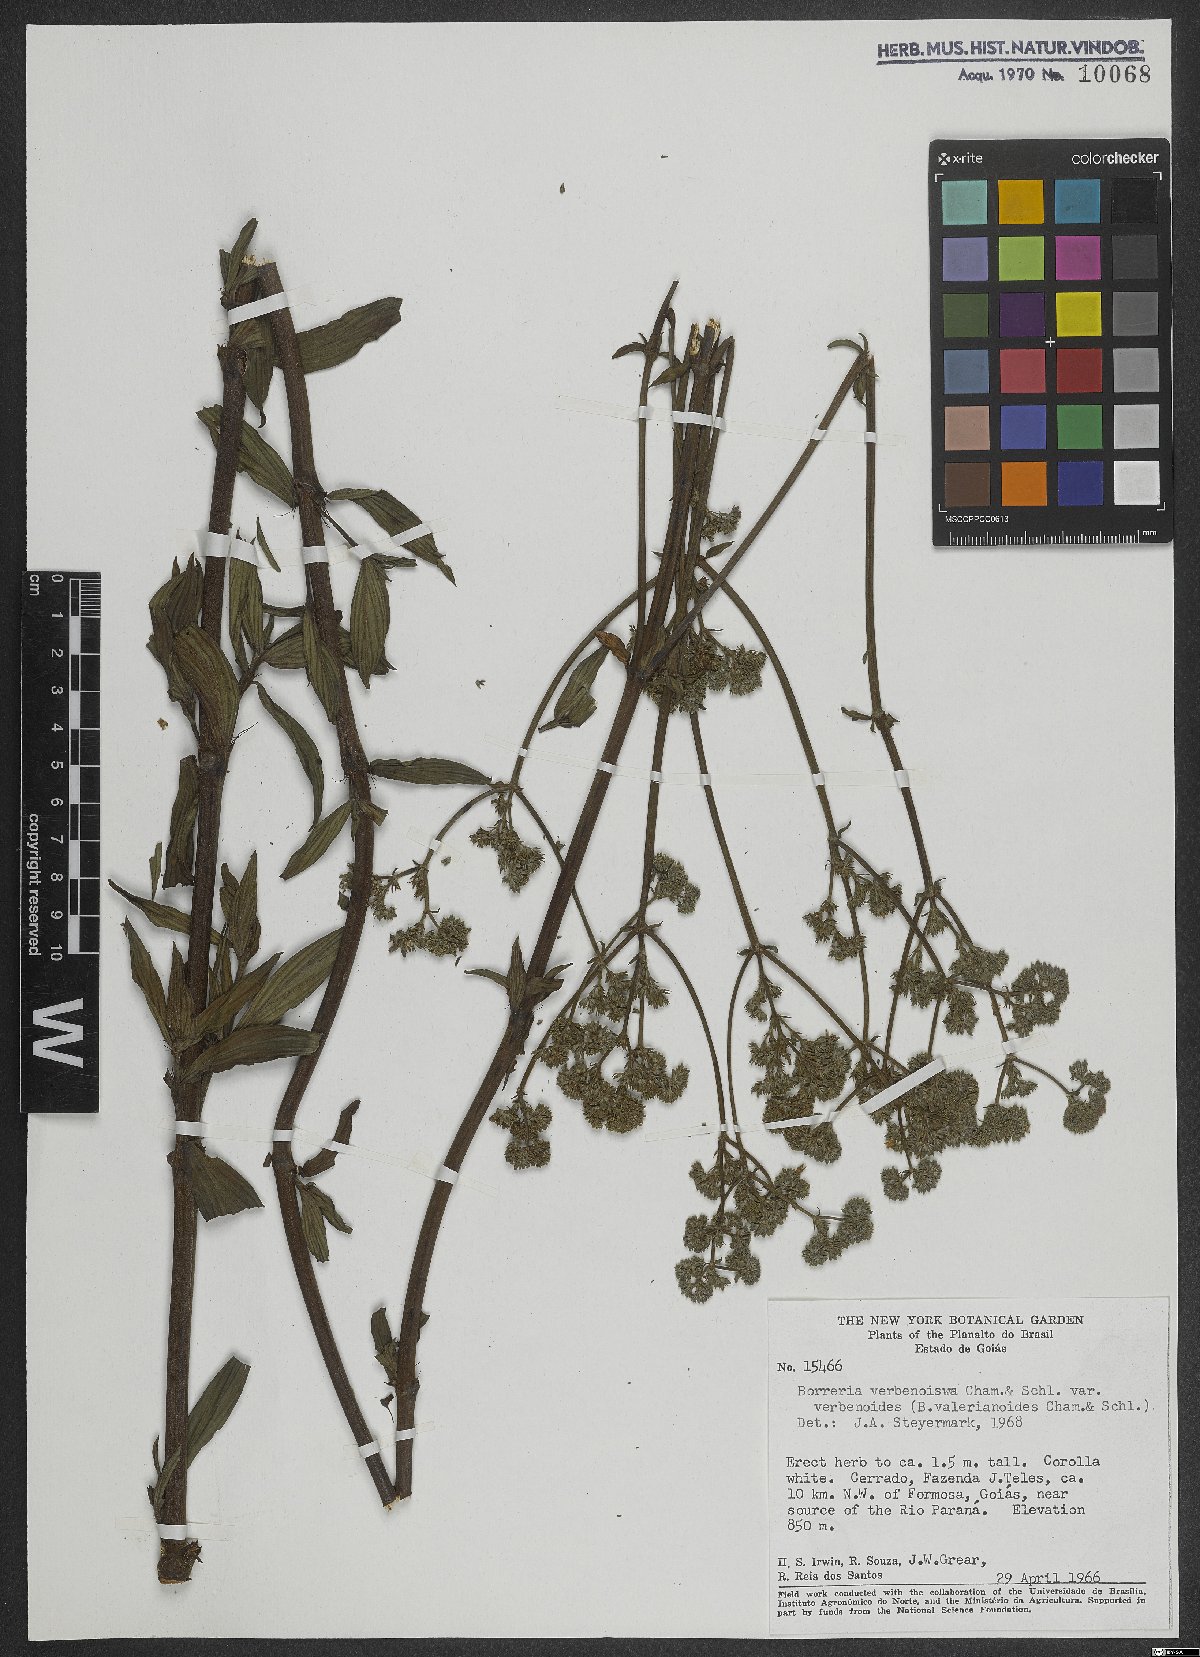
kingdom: Plantae
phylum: Tracheophyta
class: Magnoliopsida
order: Gentianales
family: Rubiaceae
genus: Spermacoce
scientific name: Spermacoce verbenoides
